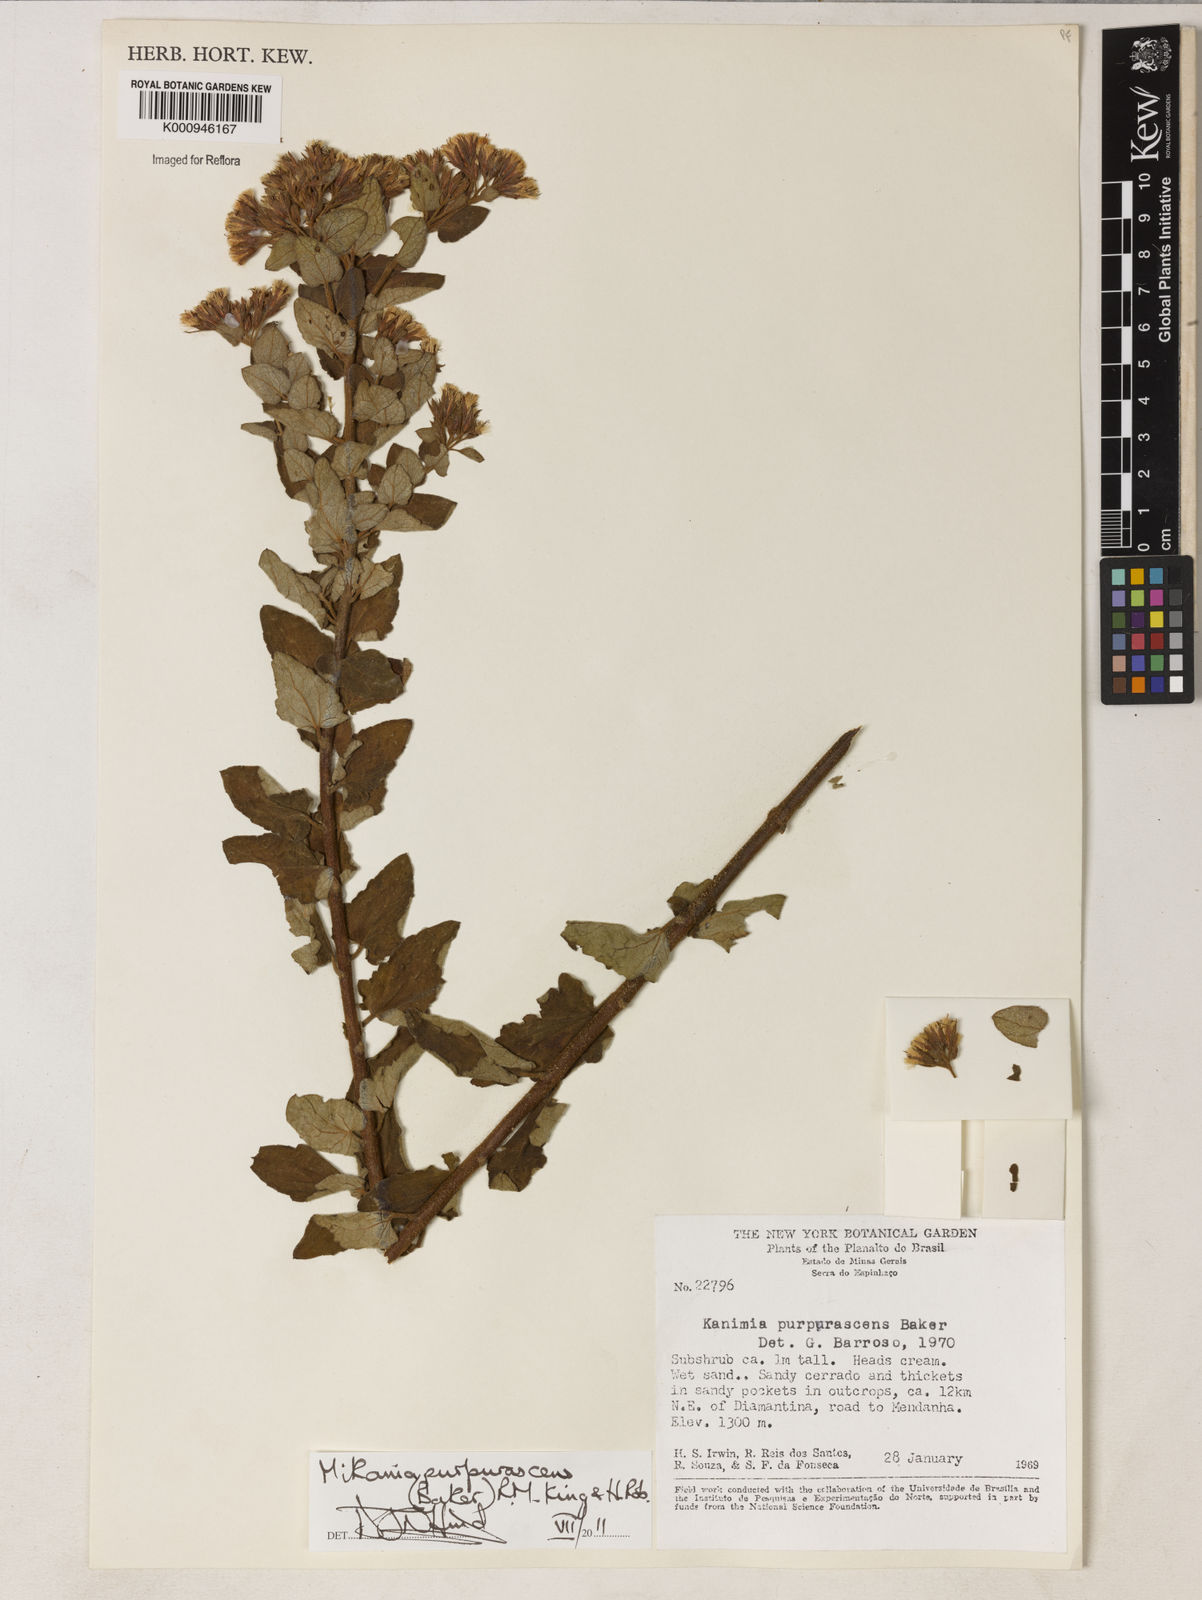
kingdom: Plantae
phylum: Tracheophyta
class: Magnoliopsida
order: Asterales
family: Asteraceae
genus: Mikania
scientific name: Mikania purpurascens
